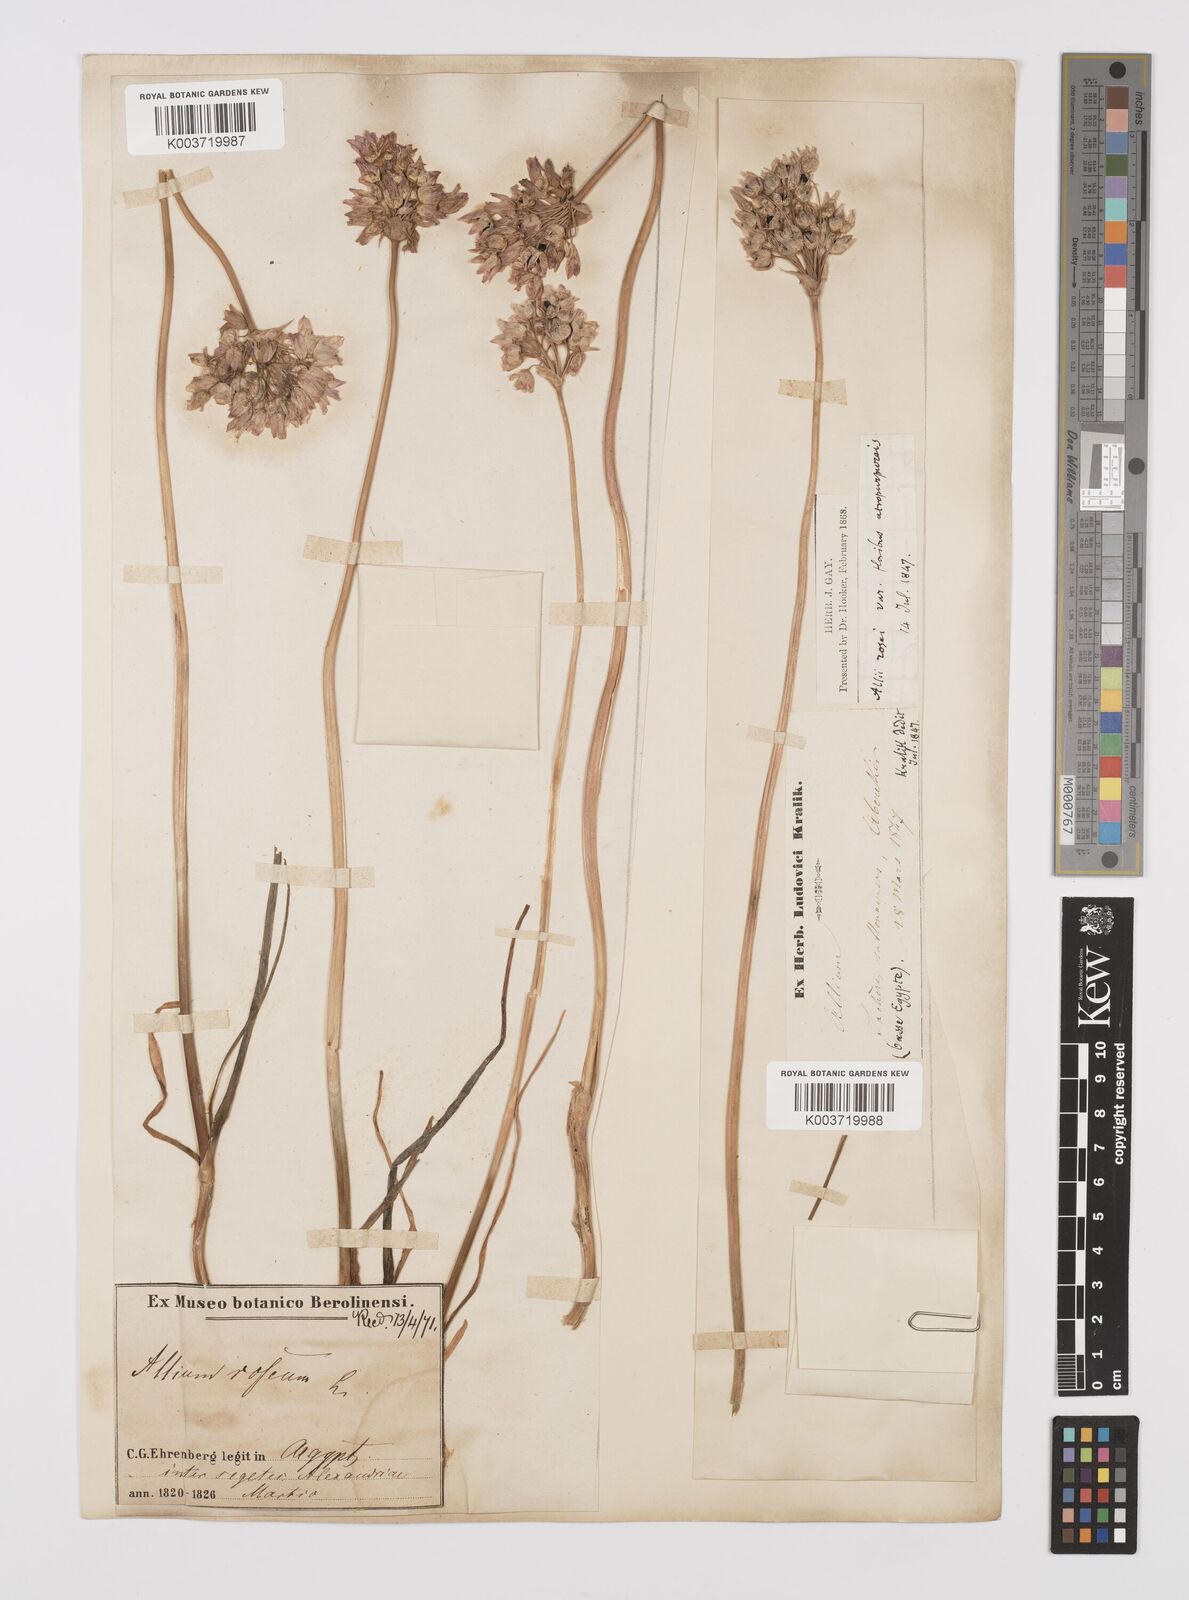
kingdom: Plantae
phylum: Tracheophyta
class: Liliopsida
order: Asparagales
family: Amaryllidaceae
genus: Allium
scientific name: Allium roseum
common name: Rosy garlic
